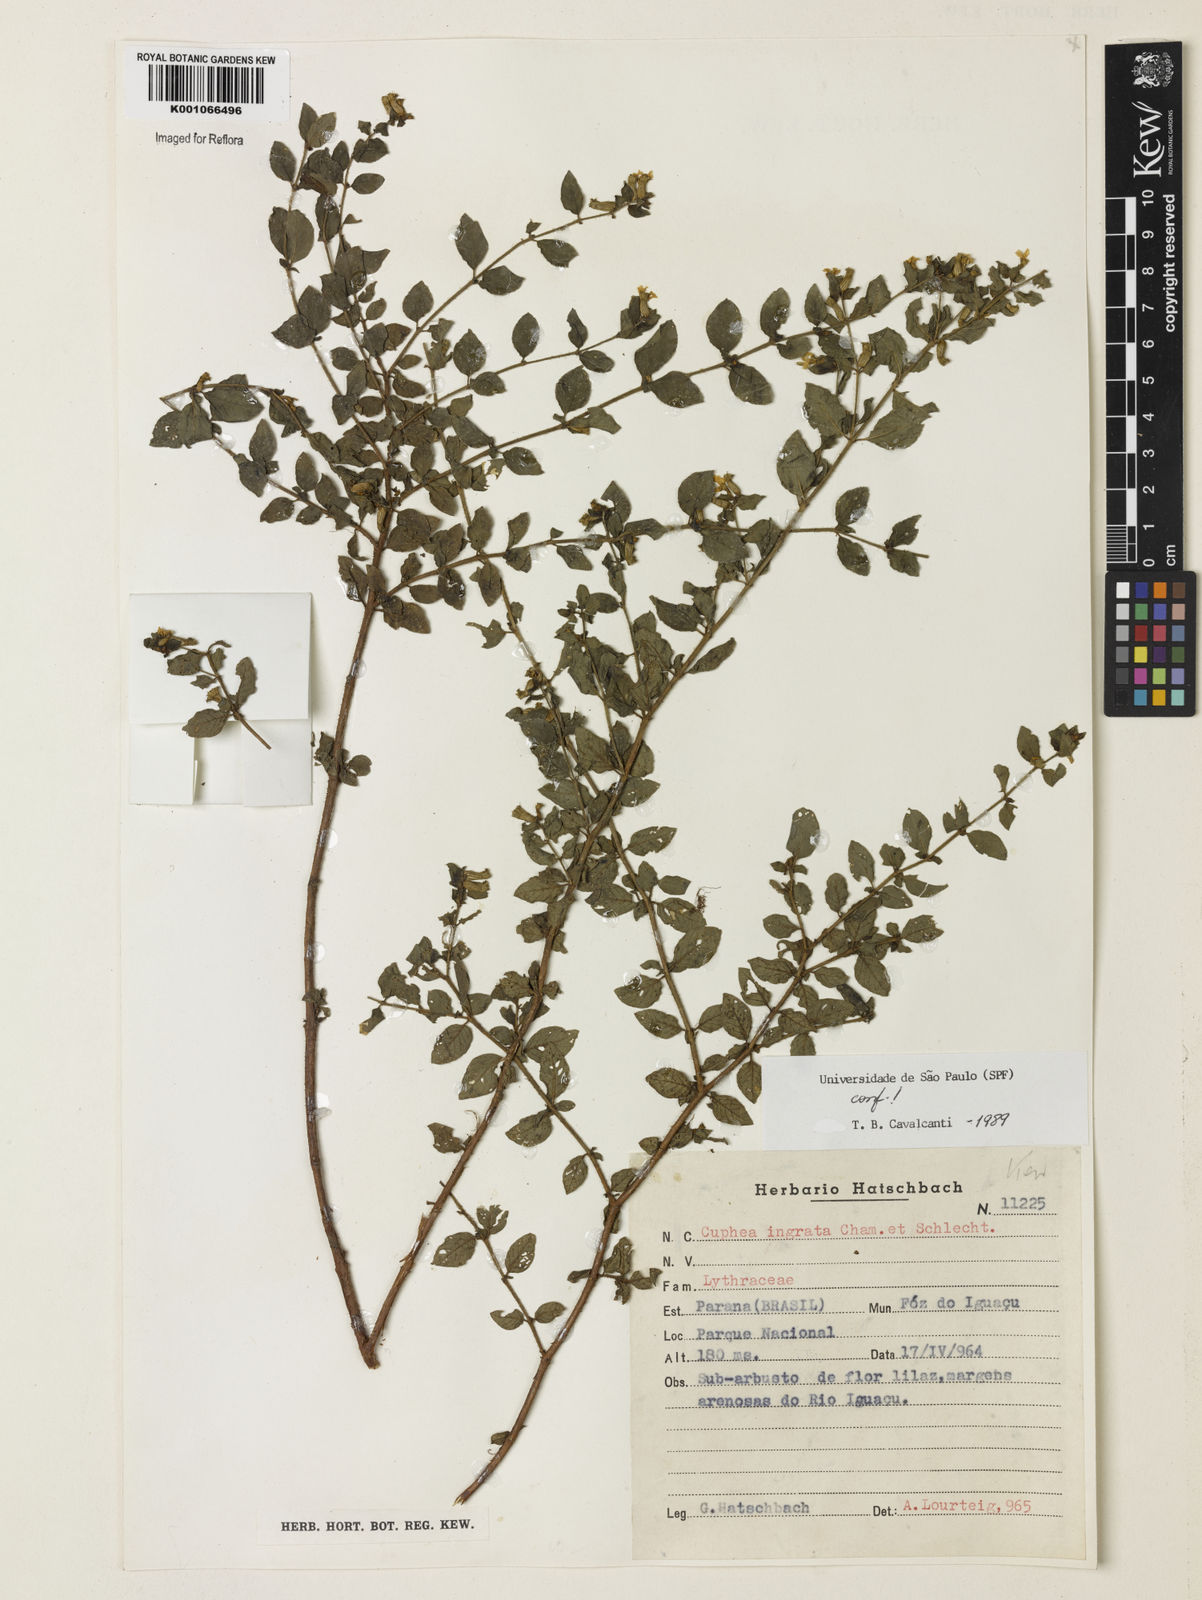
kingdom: Plantae
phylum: Tracheophyta
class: Magnoliopsida
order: Myrtales
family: Lythraceae
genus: Cuphea
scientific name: Cuphea ingrata
